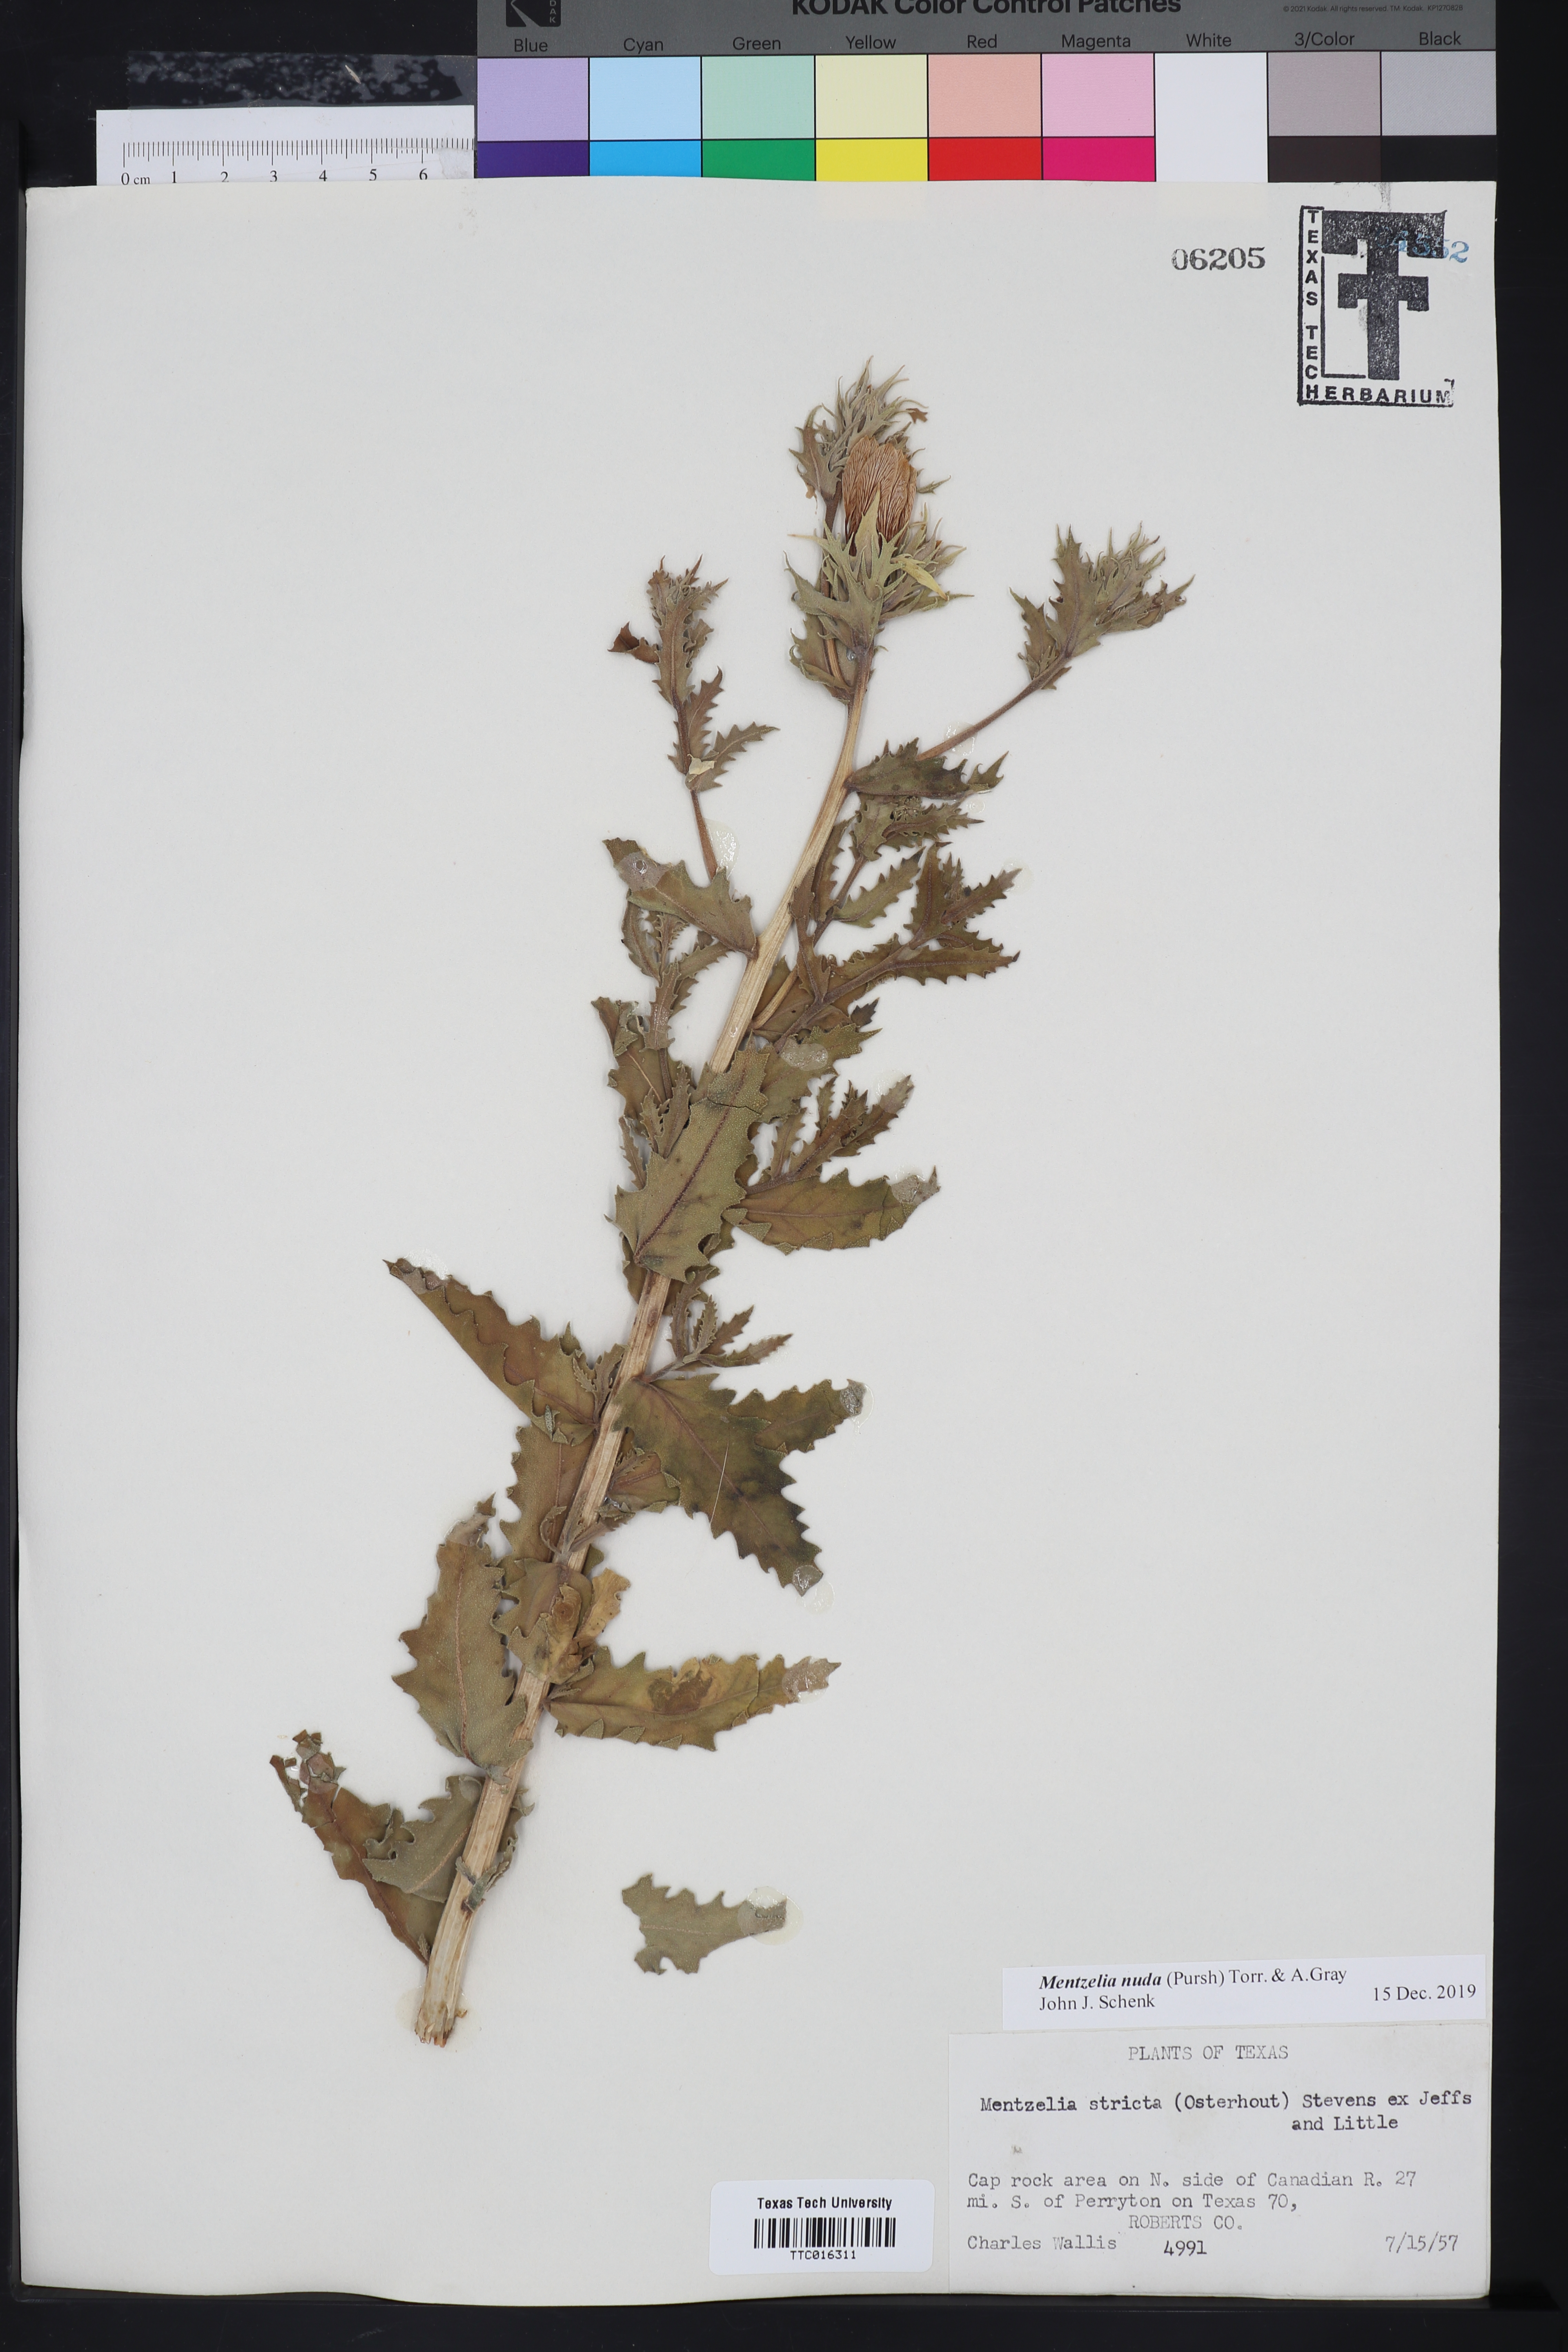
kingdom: Plantae
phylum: Tracheophyta
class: Magnoliopsida
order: Cornales
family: Loasaceae
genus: Mentzelia
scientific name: Mentzelia nuda
